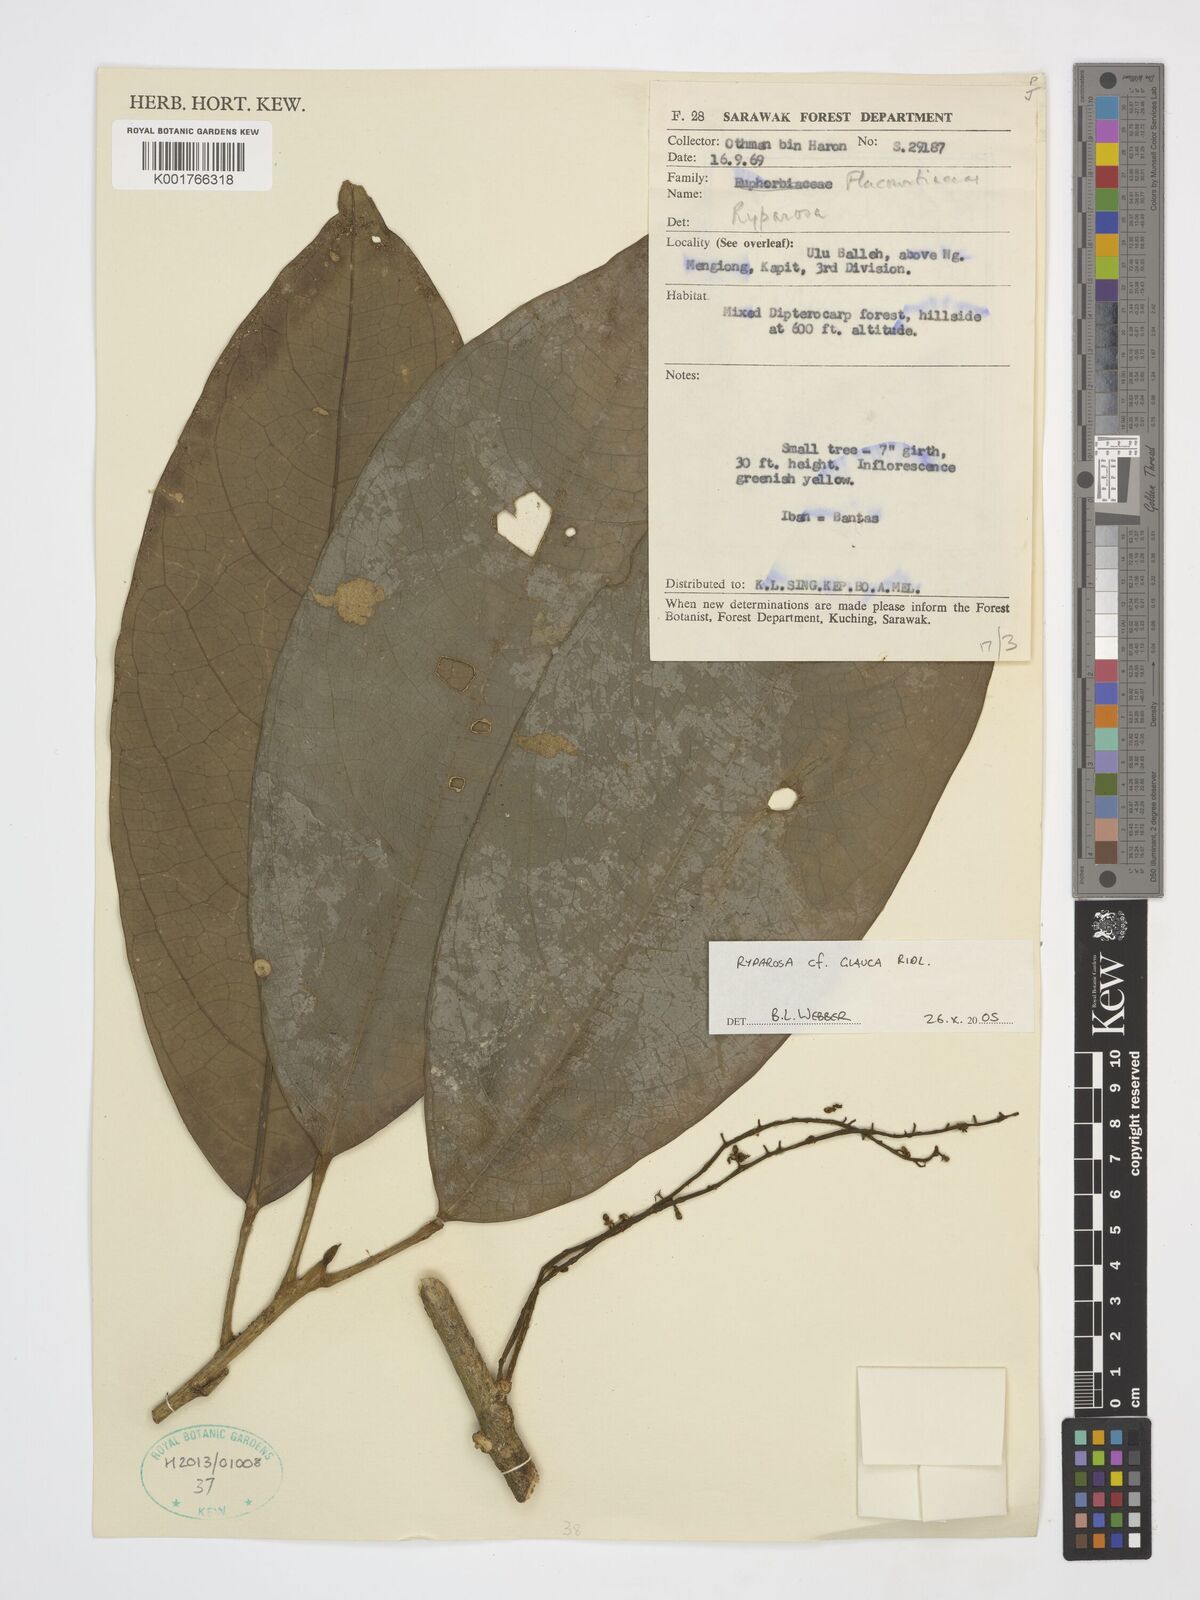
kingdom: Plantae
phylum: Tracheophyta
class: Magnoliopsida
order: Malpighiales
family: Achariaceae
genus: Ryparosa
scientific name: Ryparosa glauca
